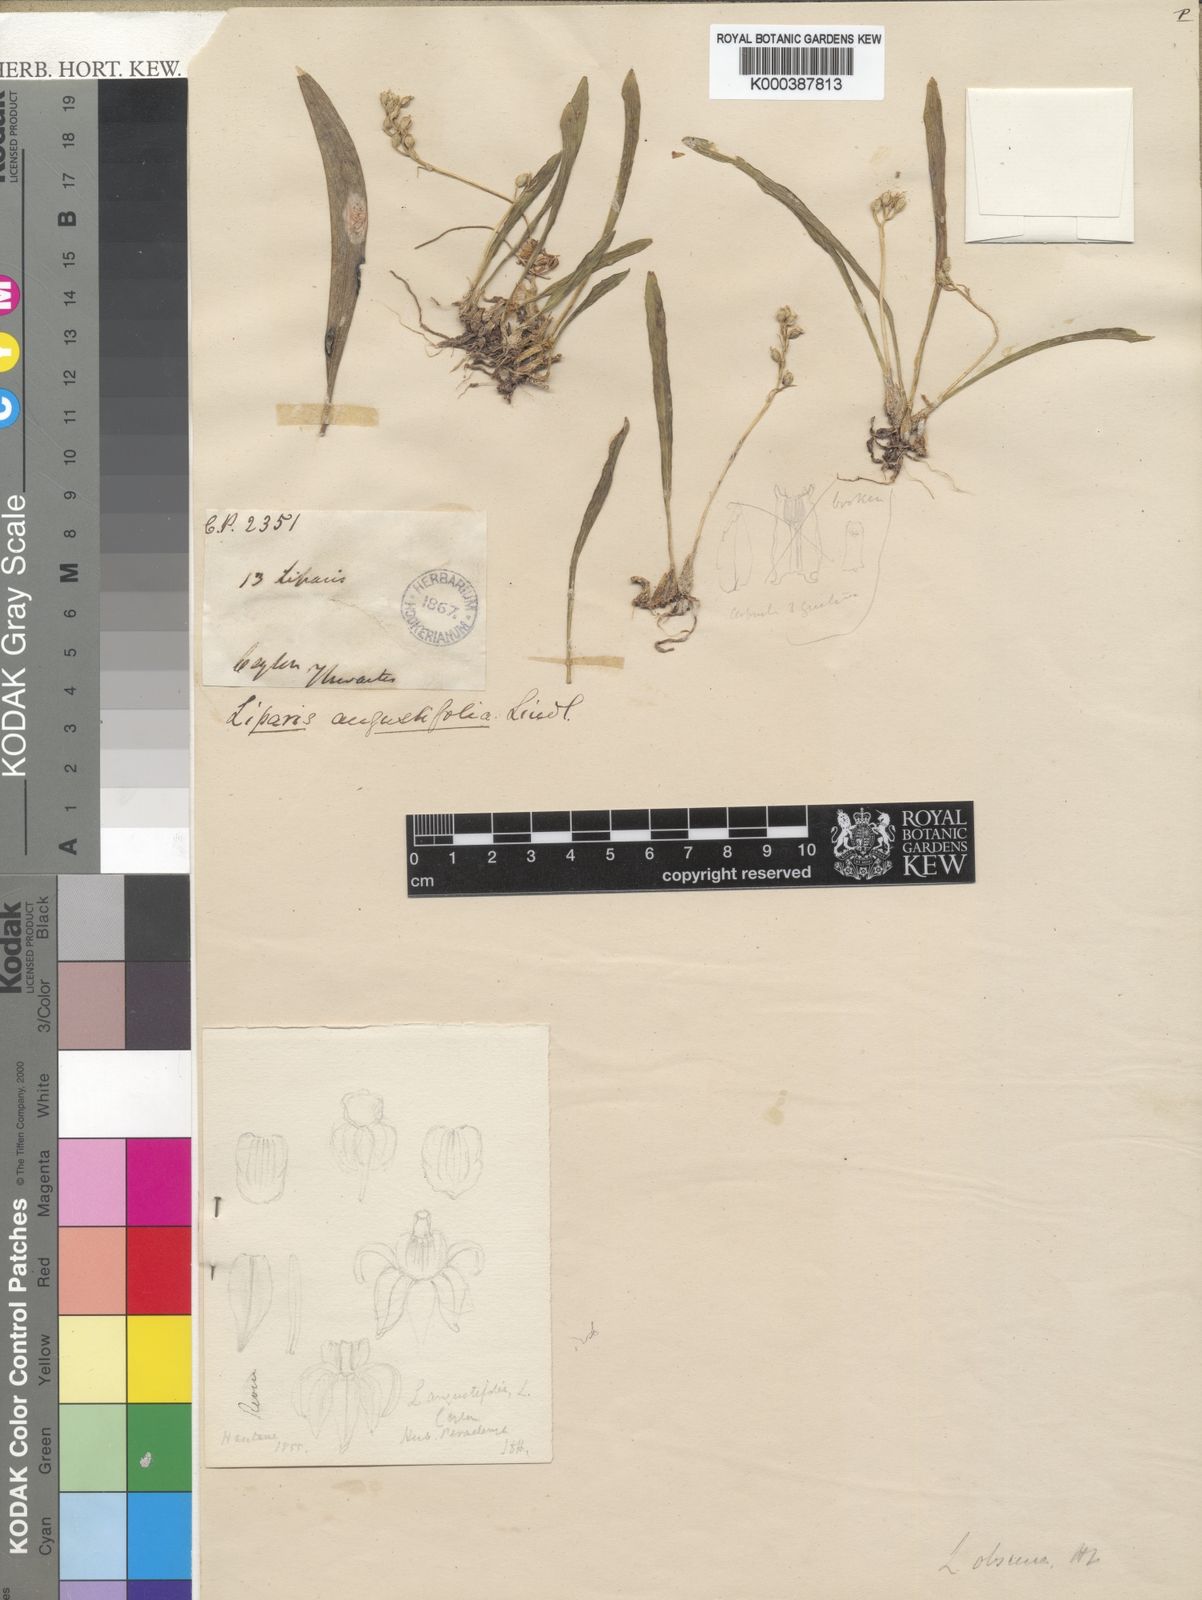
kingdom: Plantae
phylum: Tracheophyta
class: Liliopsida
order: Asparagales
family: Orchidaceae
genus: Liparis
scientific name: Liparis cespitosa
